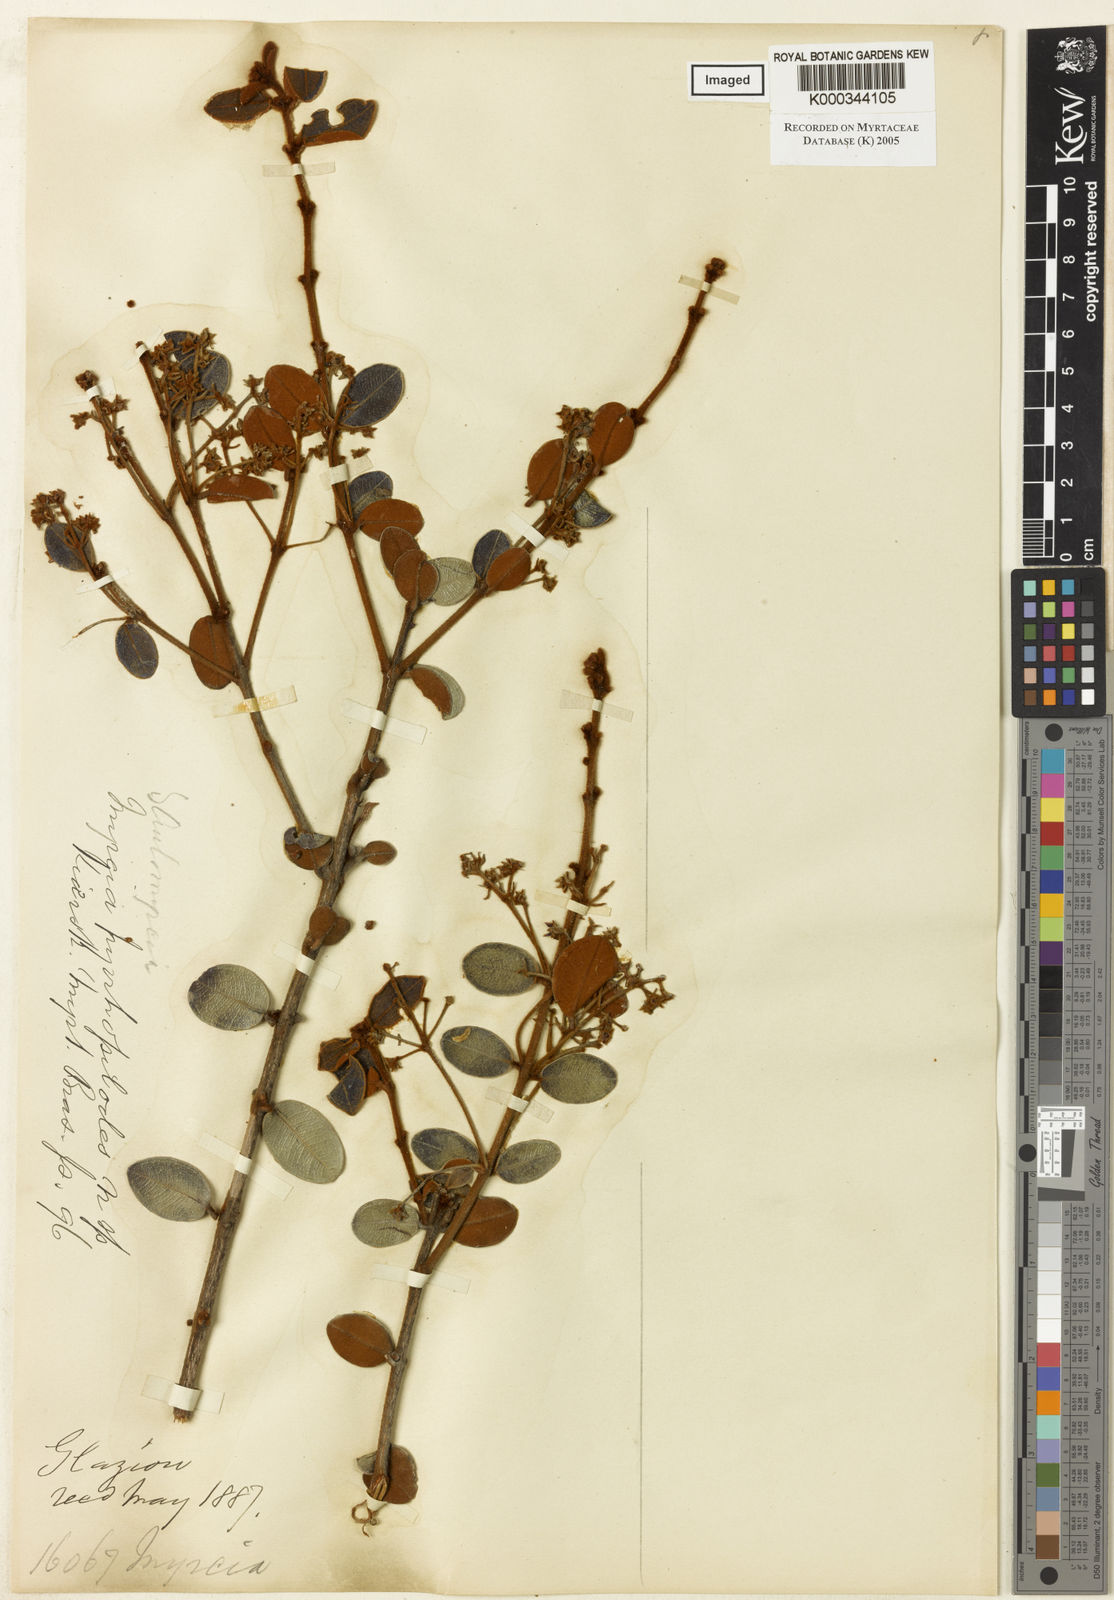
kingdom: Plantae
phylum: Tracheophyta
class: Magnoliopsida
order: Myrtales
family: Myrtaceae
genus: Myrcia
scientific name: Myrcia venulosa
